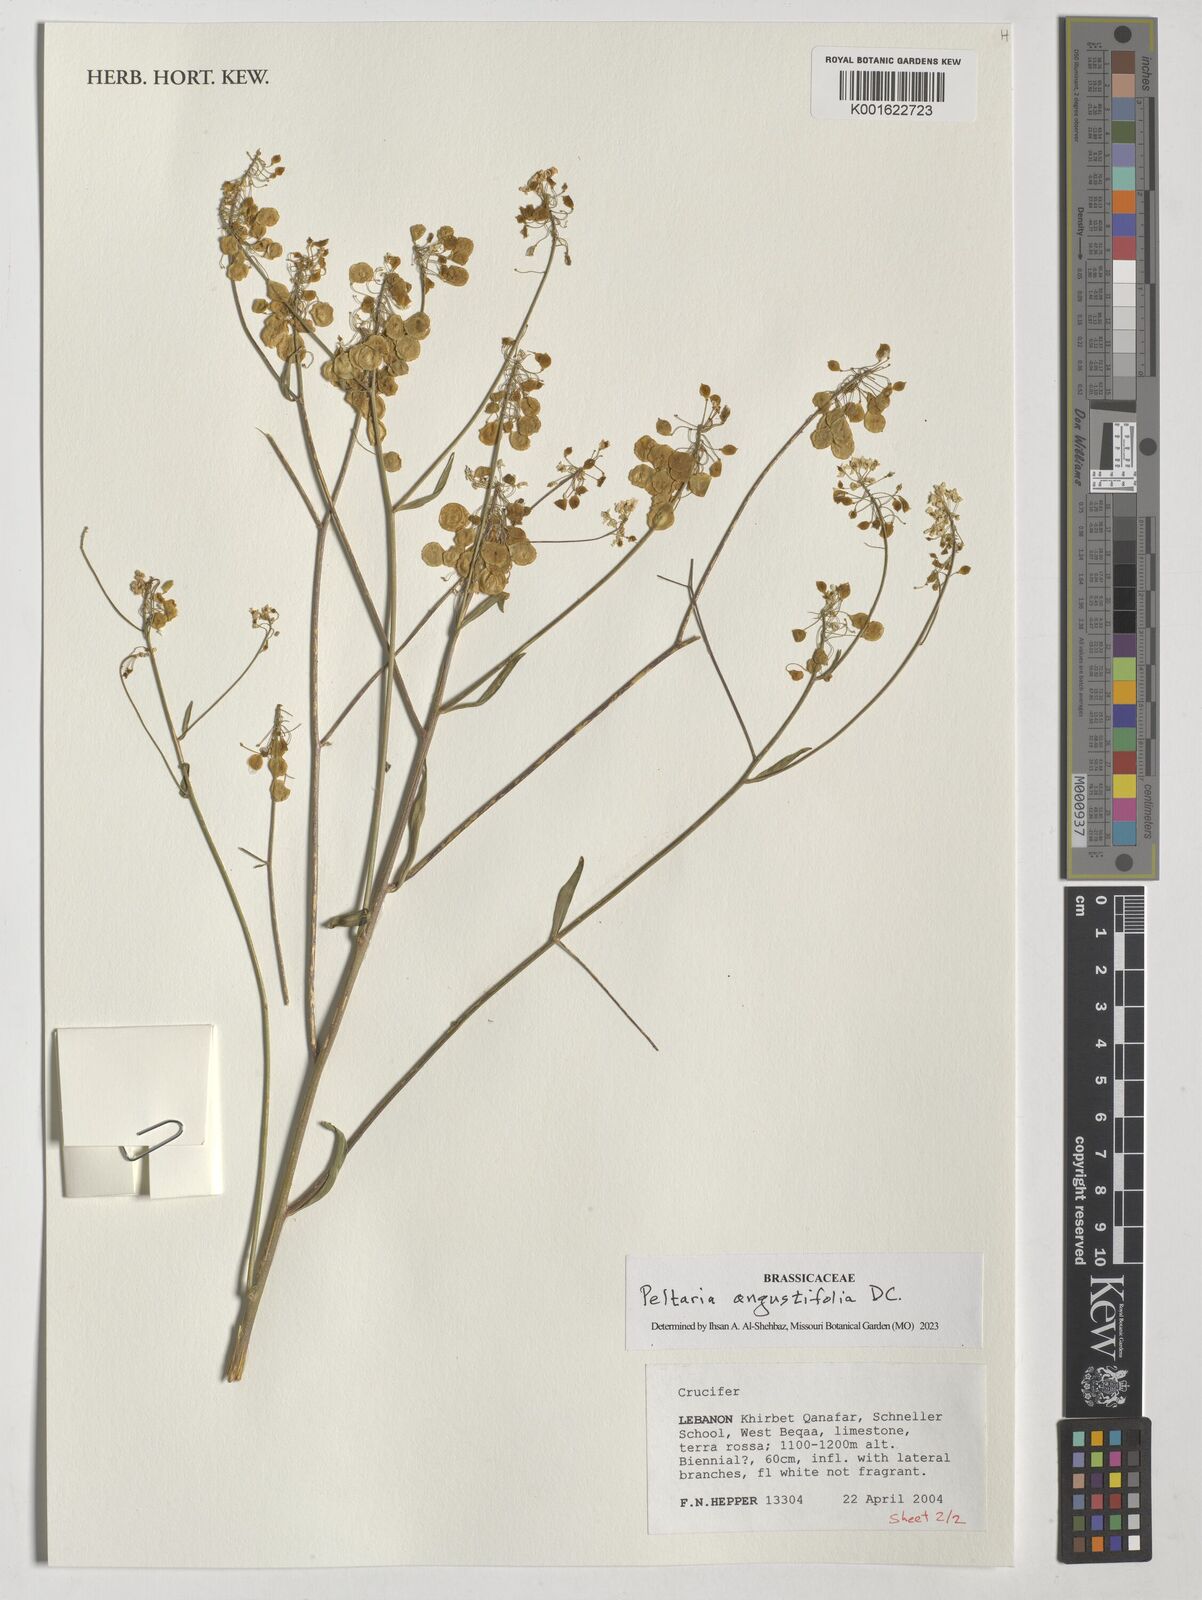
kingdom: Plantae
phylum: Tracheophyta
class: Magnoliopsida
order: Brassicales
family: Brassicaceae
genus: Peltaria
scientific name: Peltaria angustifolia
